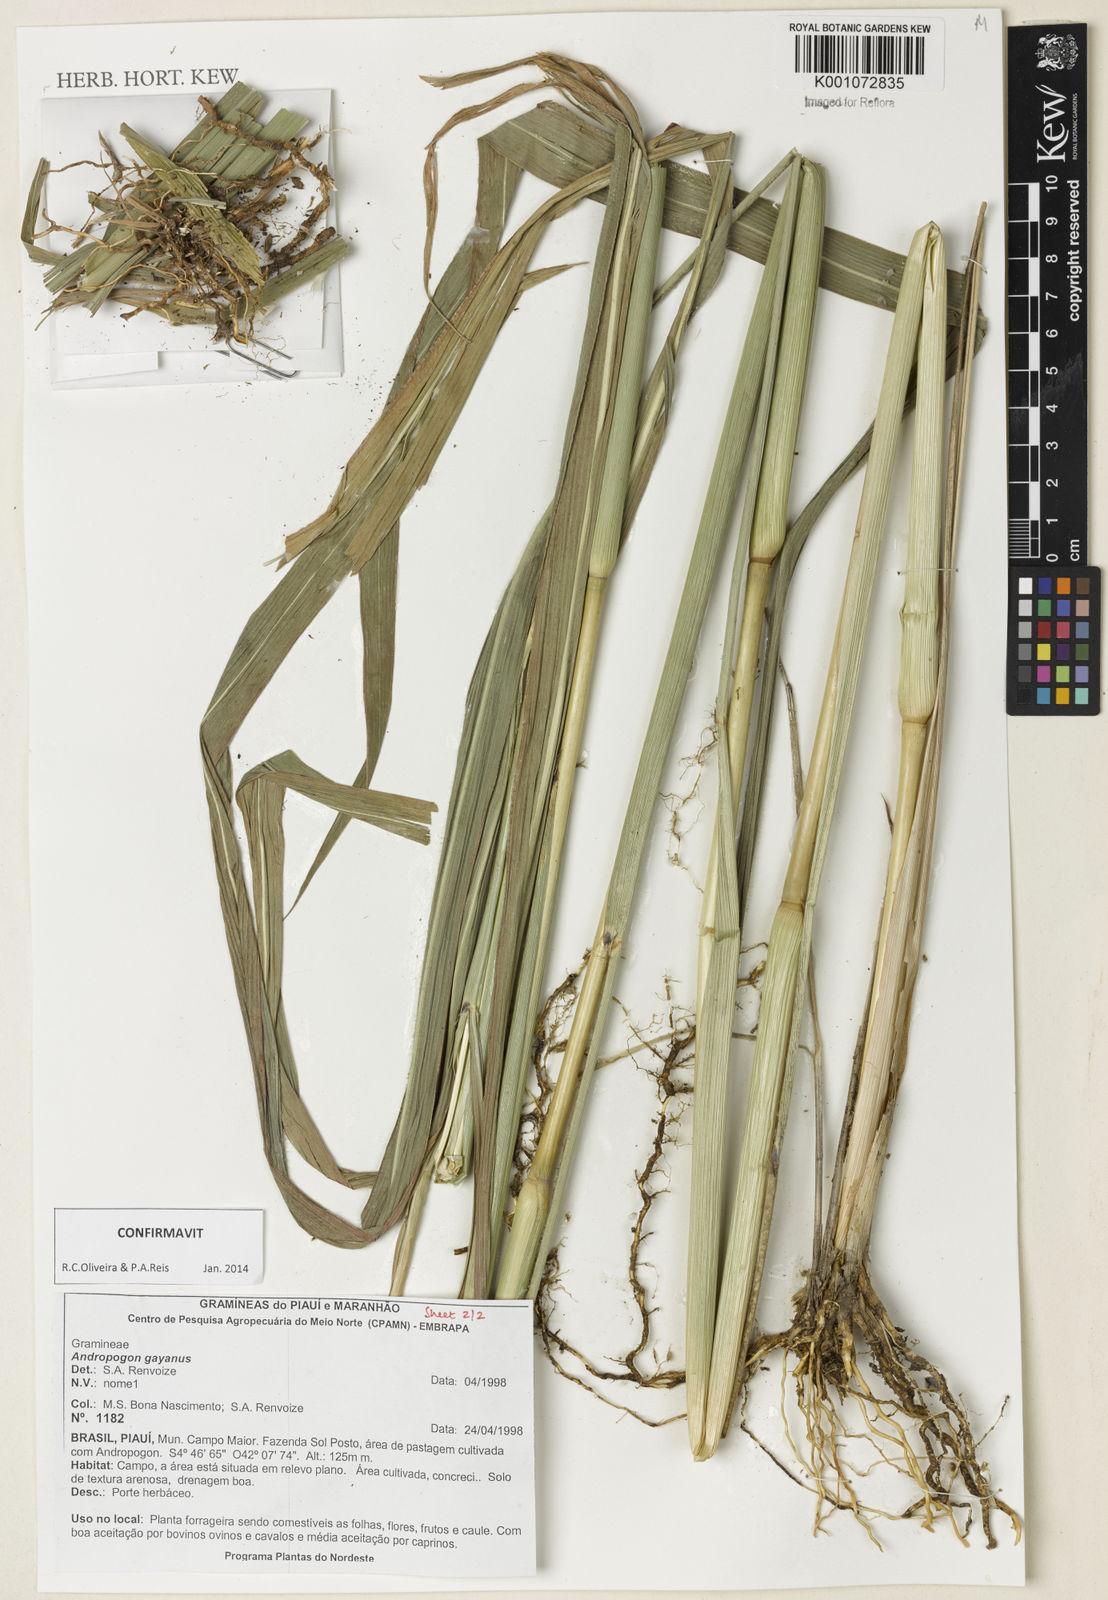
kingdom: Plantae
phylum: Tracheophyta
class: Liliopsida
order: Poales
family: Poaceae
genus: Andropogon
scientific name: Andropogon gayanus
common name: Tambuki grass
